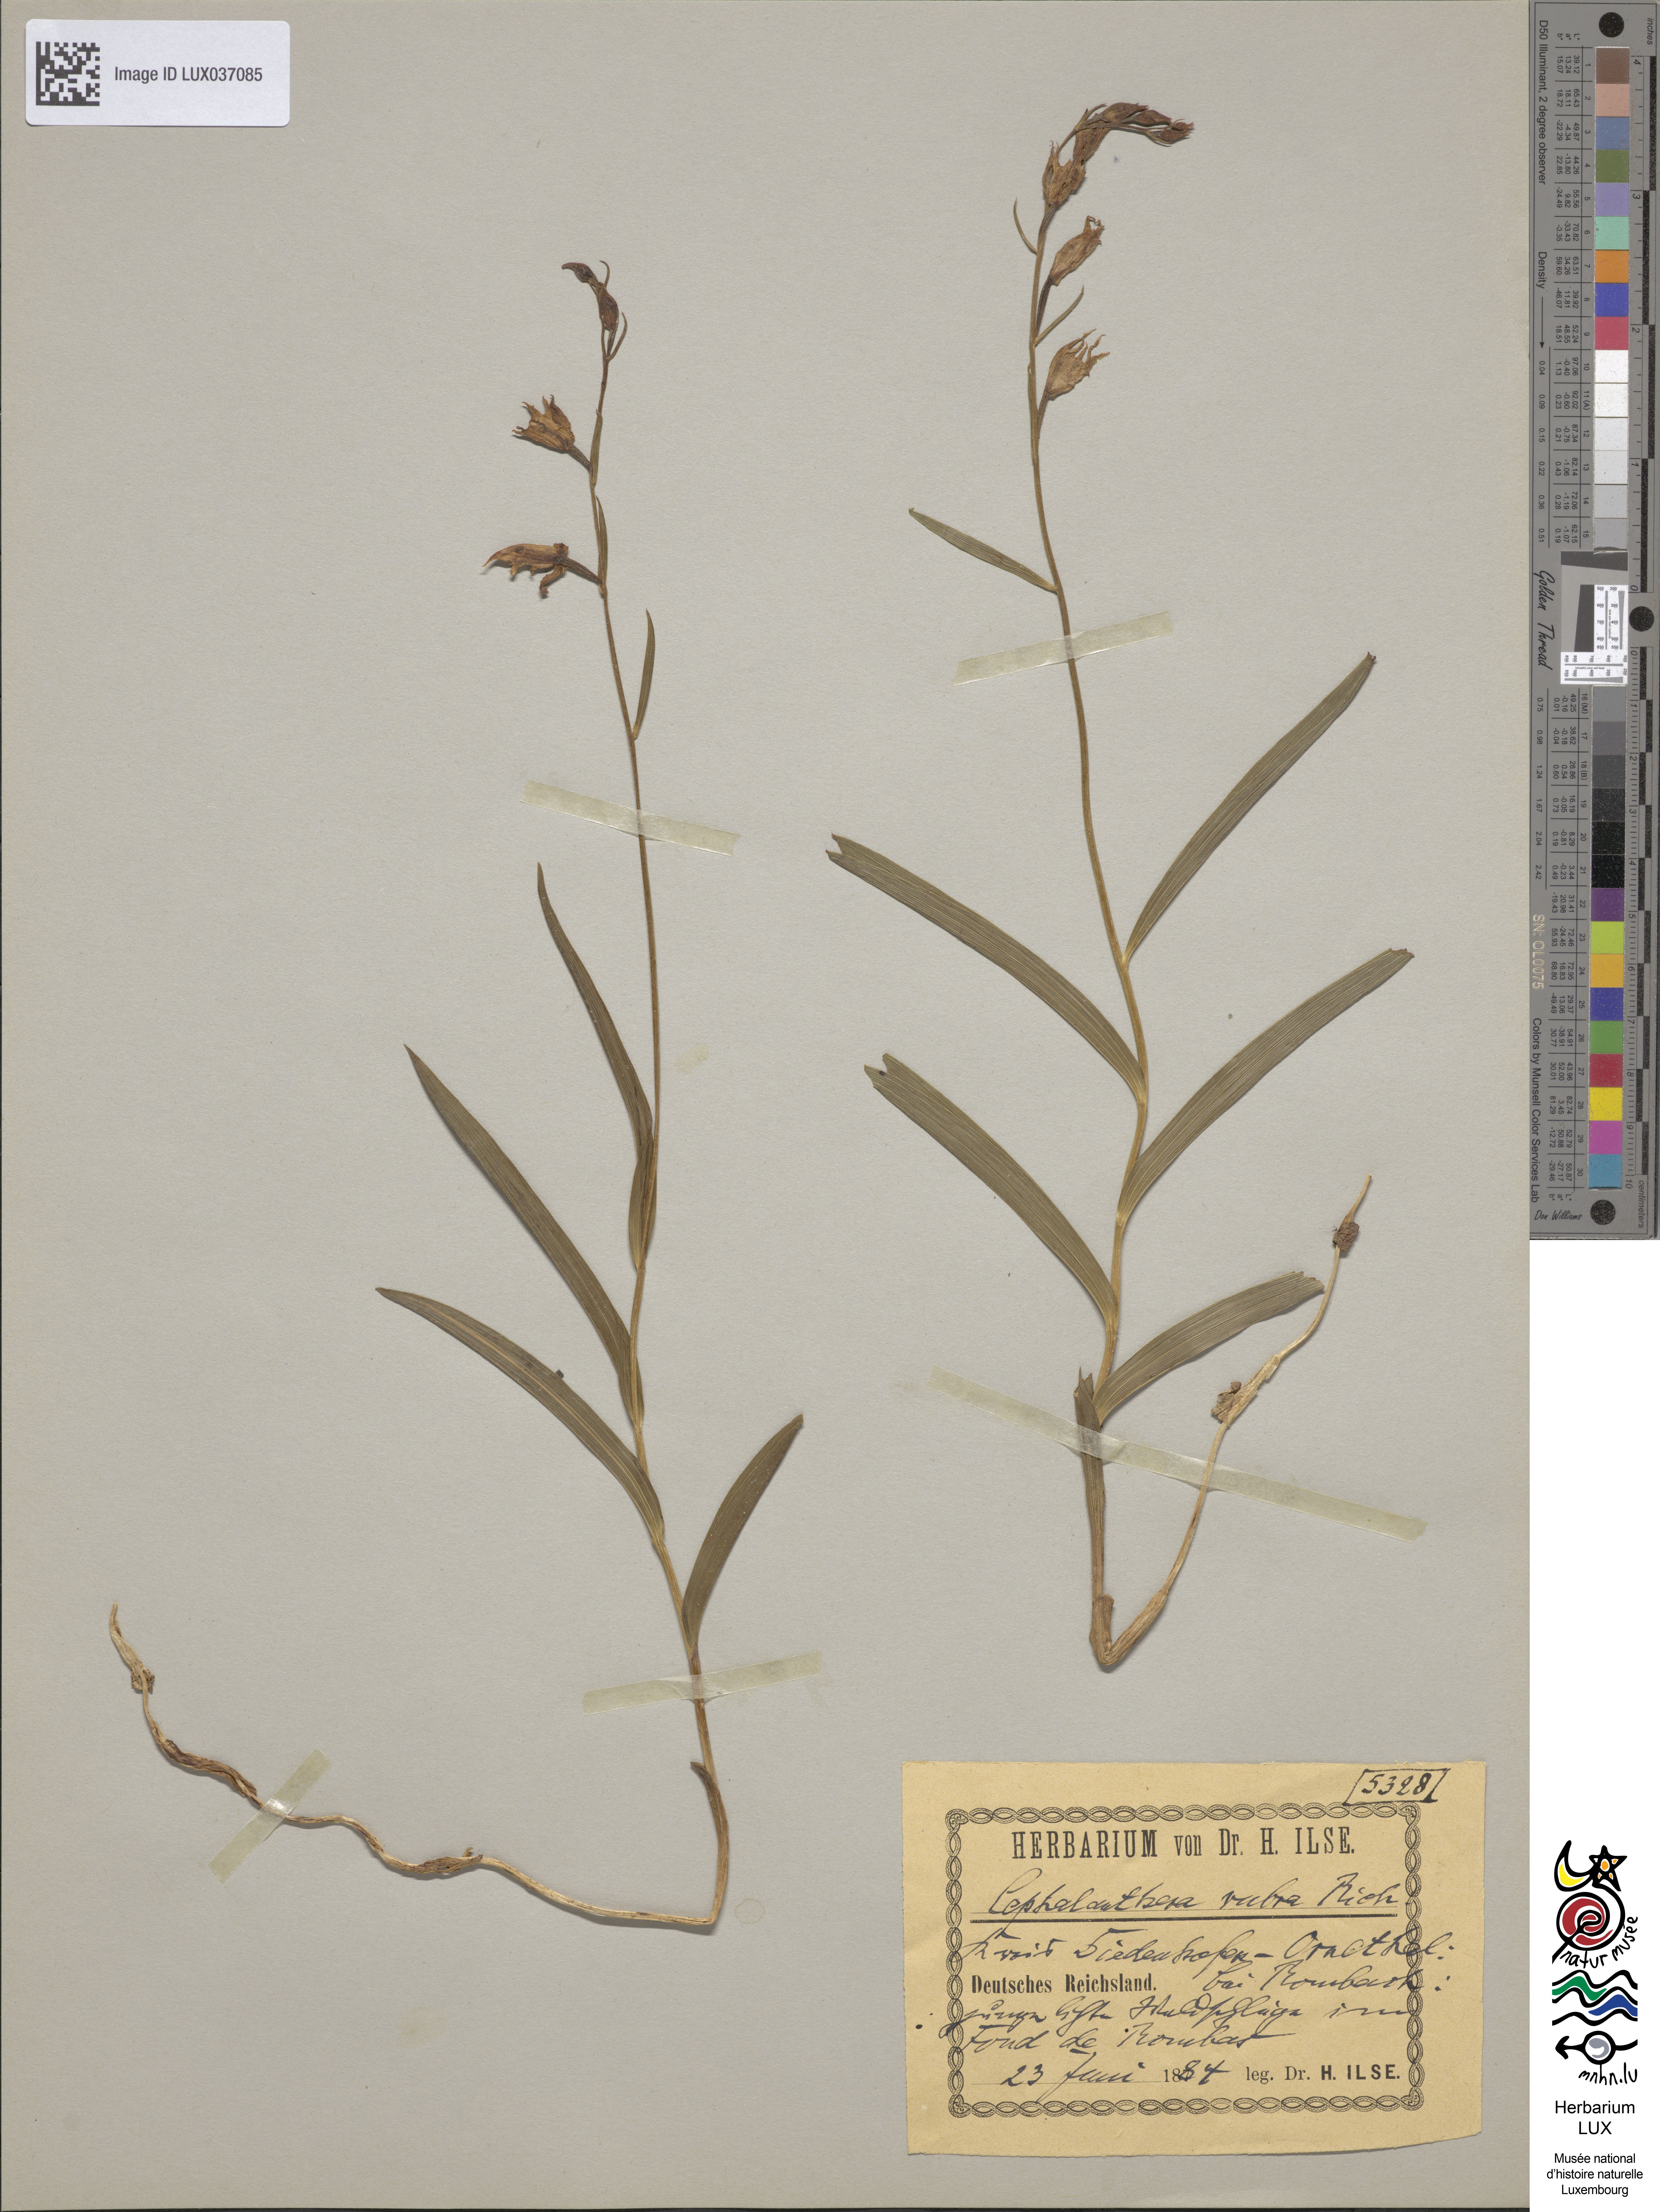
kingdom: Plantae
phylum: Tracheophyta
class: Liliopsida
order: Asparagales
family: Orchidaceae
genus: Cephalanthera
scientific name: Cephalanthera rubra
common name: Red helleborine
